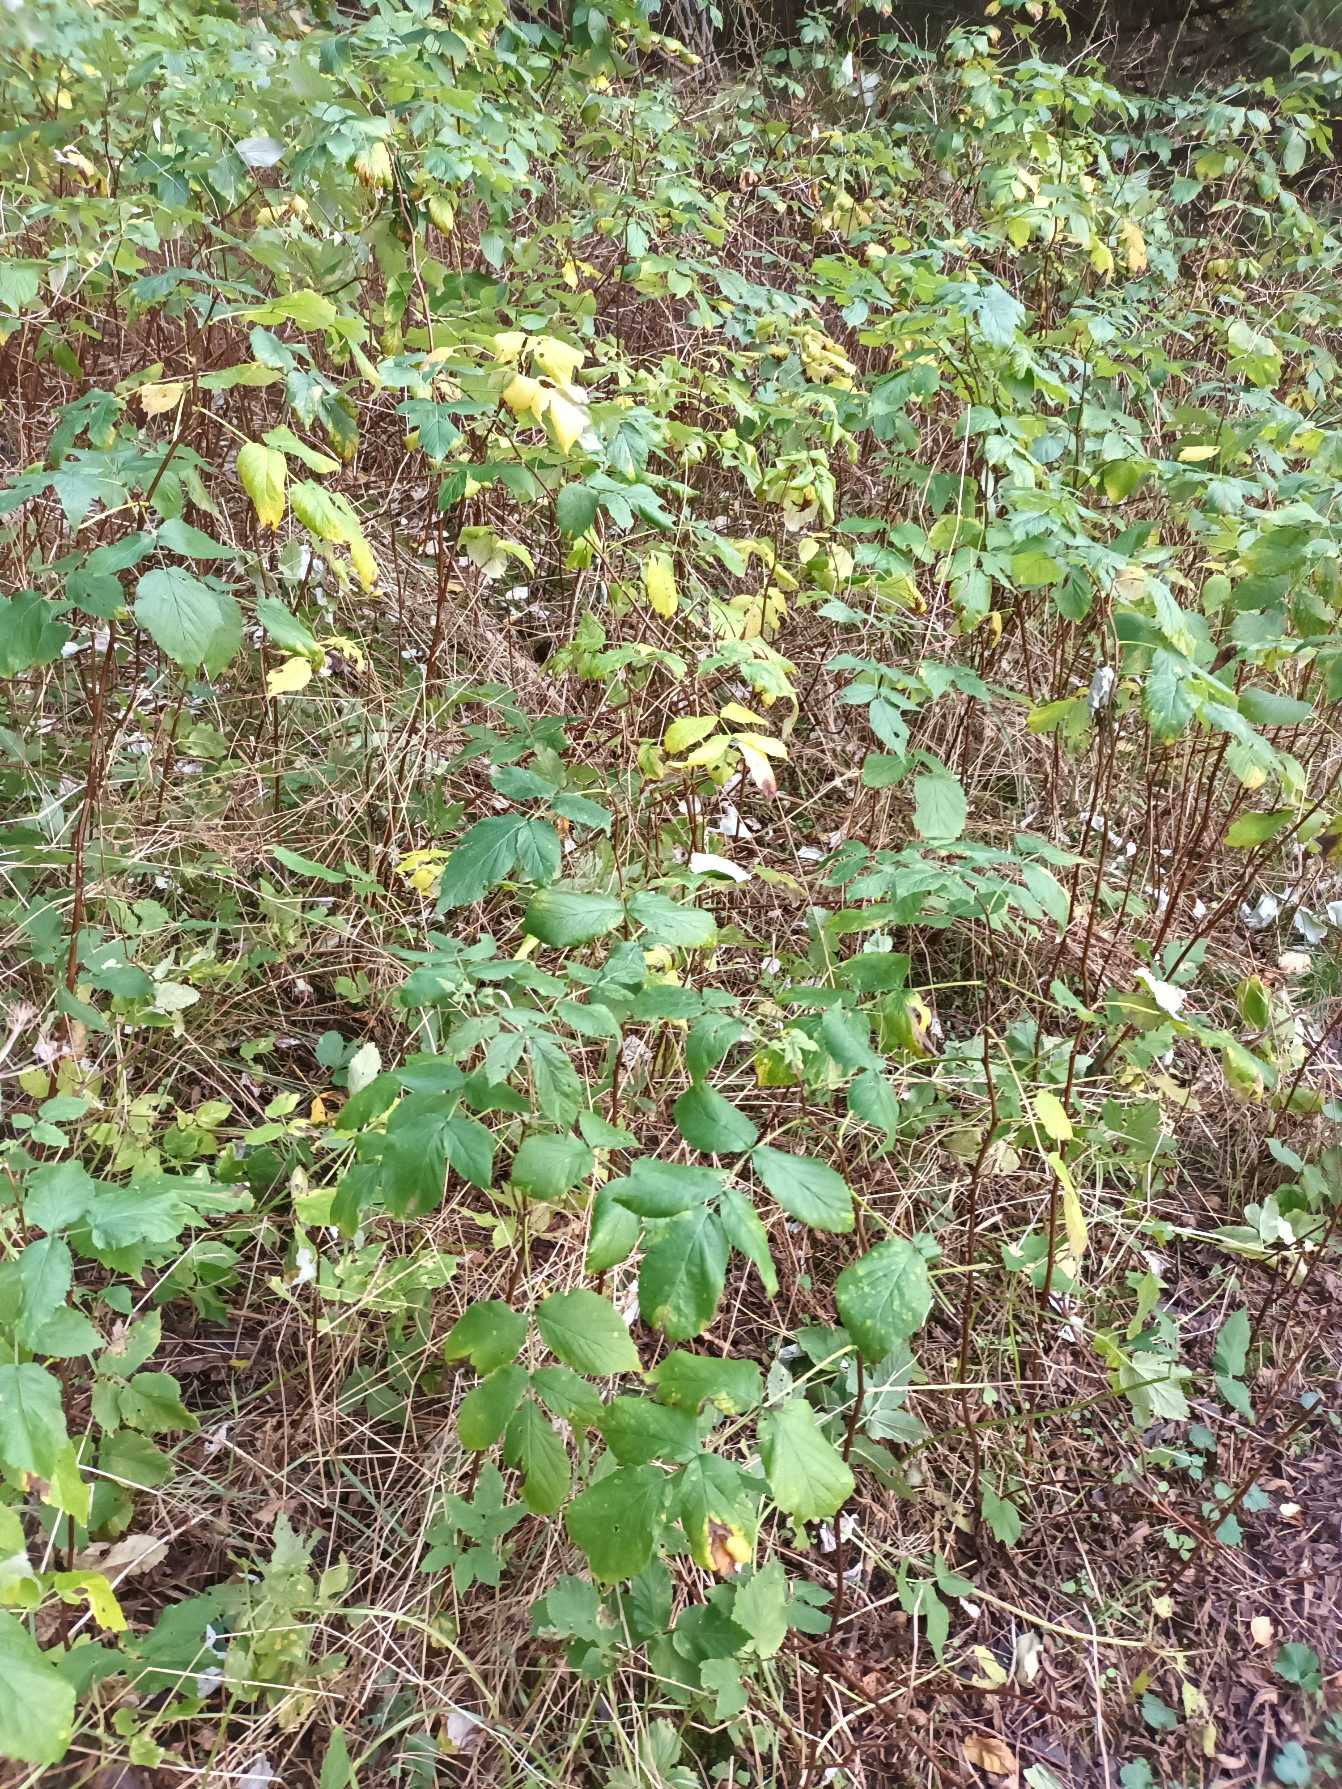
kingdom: Plantae
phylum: Tracheophyta
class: Magnoliopsida
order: Rosales
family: Rosaceae
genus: Rubus
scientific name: Rubus idaeus
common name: Hindbær
